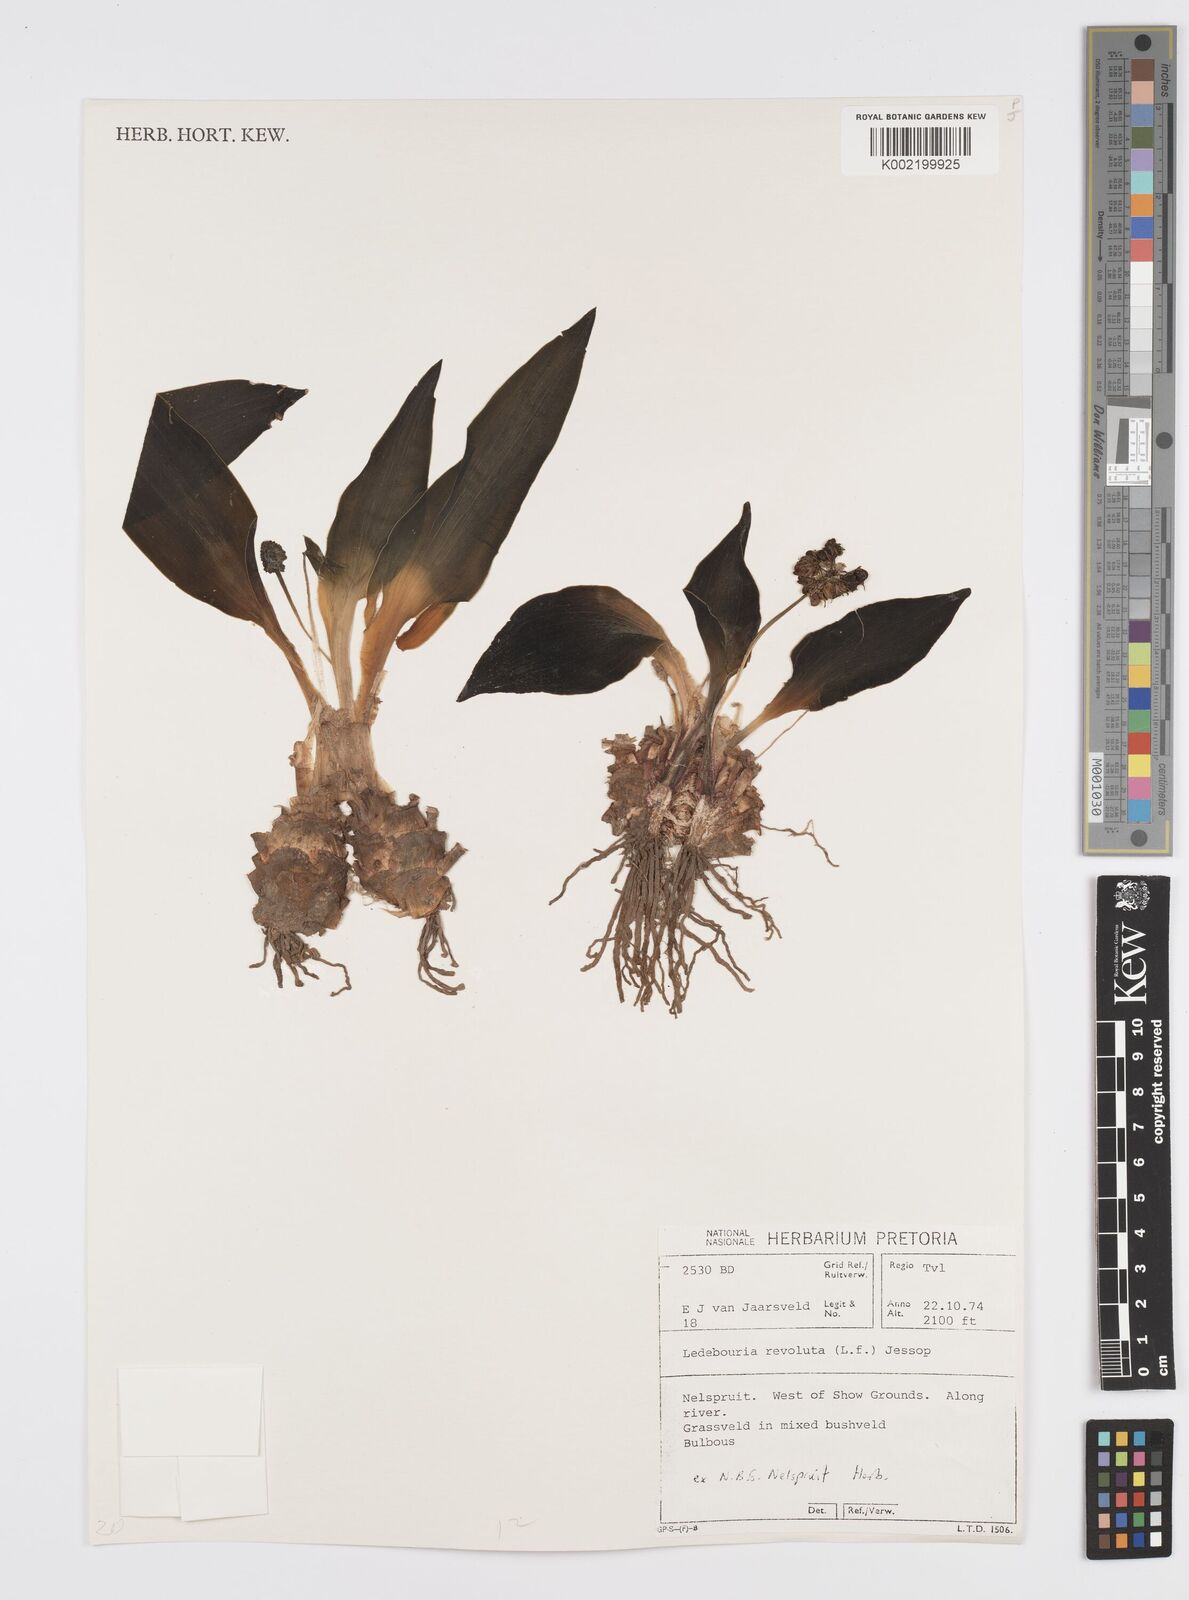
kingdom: Plantae
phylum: Tracheophyta
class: Liliopsida
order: Asparagales
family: Asparagaceae
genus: Ledebouria
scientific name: Ledebouria revoluta
